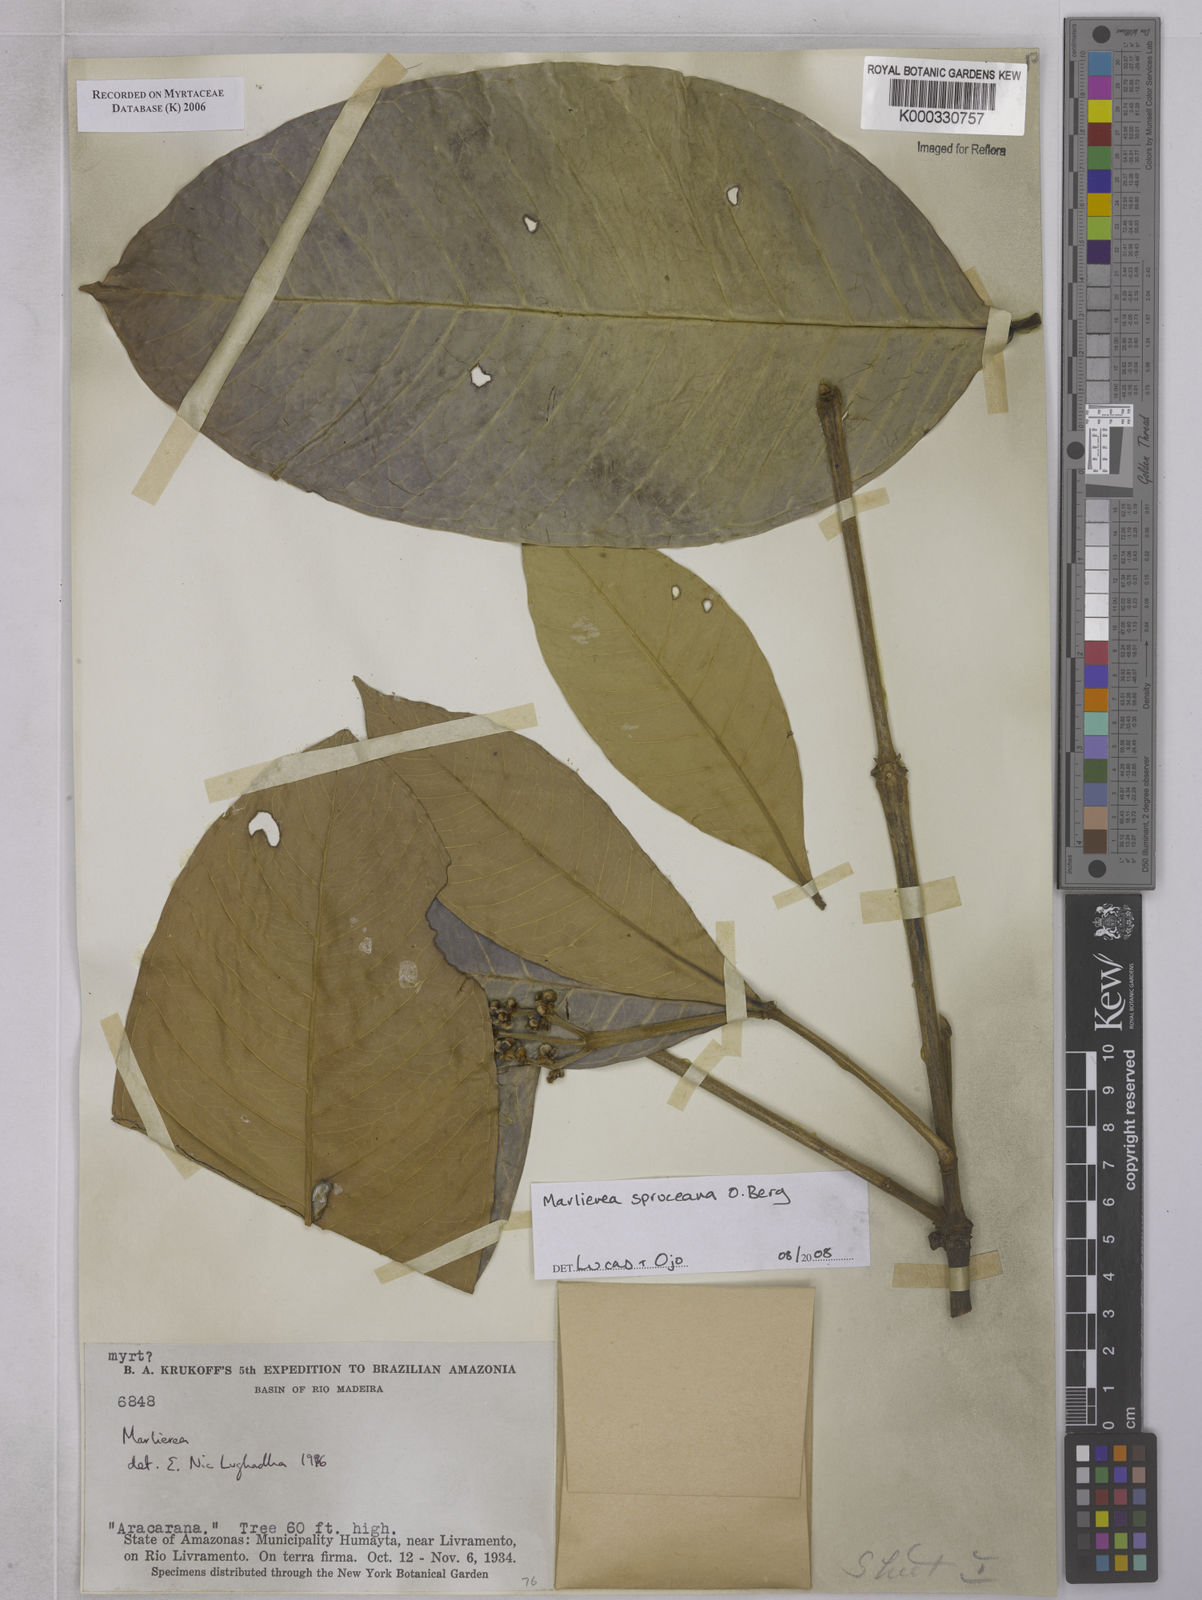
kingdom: Plantae
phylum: Tracheophyta
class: Magnoliopsida
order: Myrtales
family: Myrtaceae
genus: Marlierea
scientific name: Marlierea
